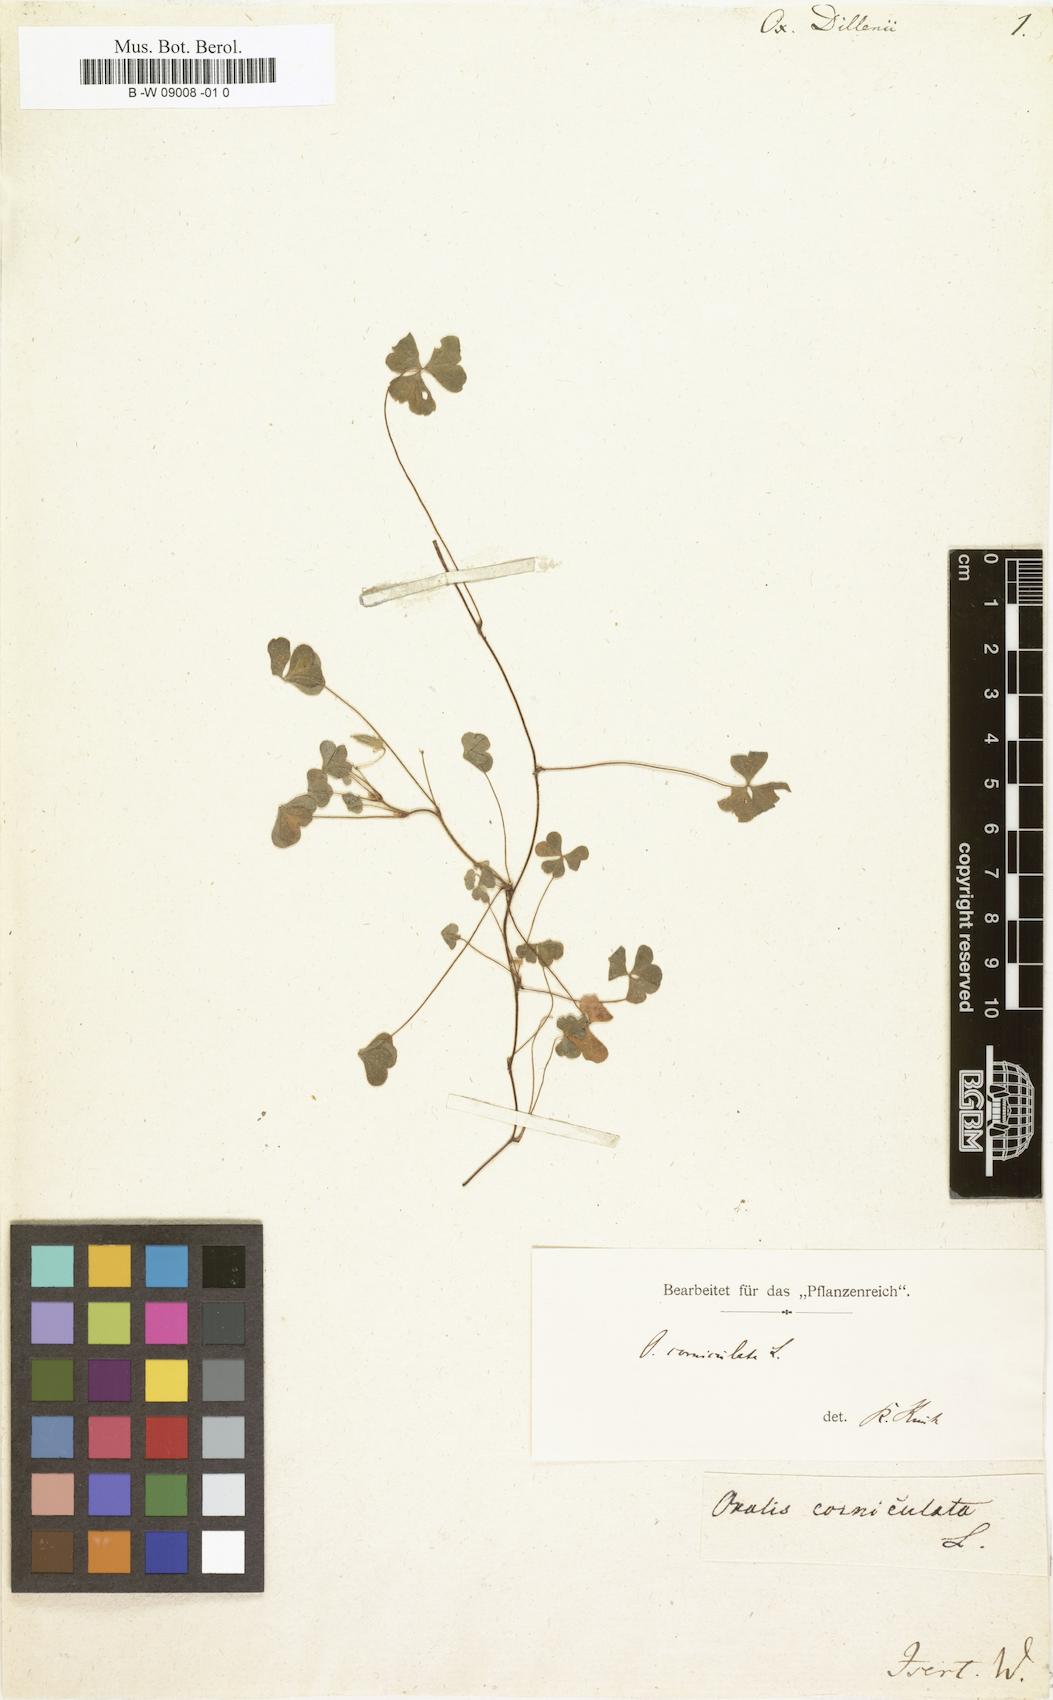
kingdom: Plantae
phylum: Tracheophyta
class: Magnoliopsida
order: Oxalidales
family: Oxalidaceae
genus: Oxalis
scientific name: Oxalis dillenii
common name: Sussex yellow-sorrel
